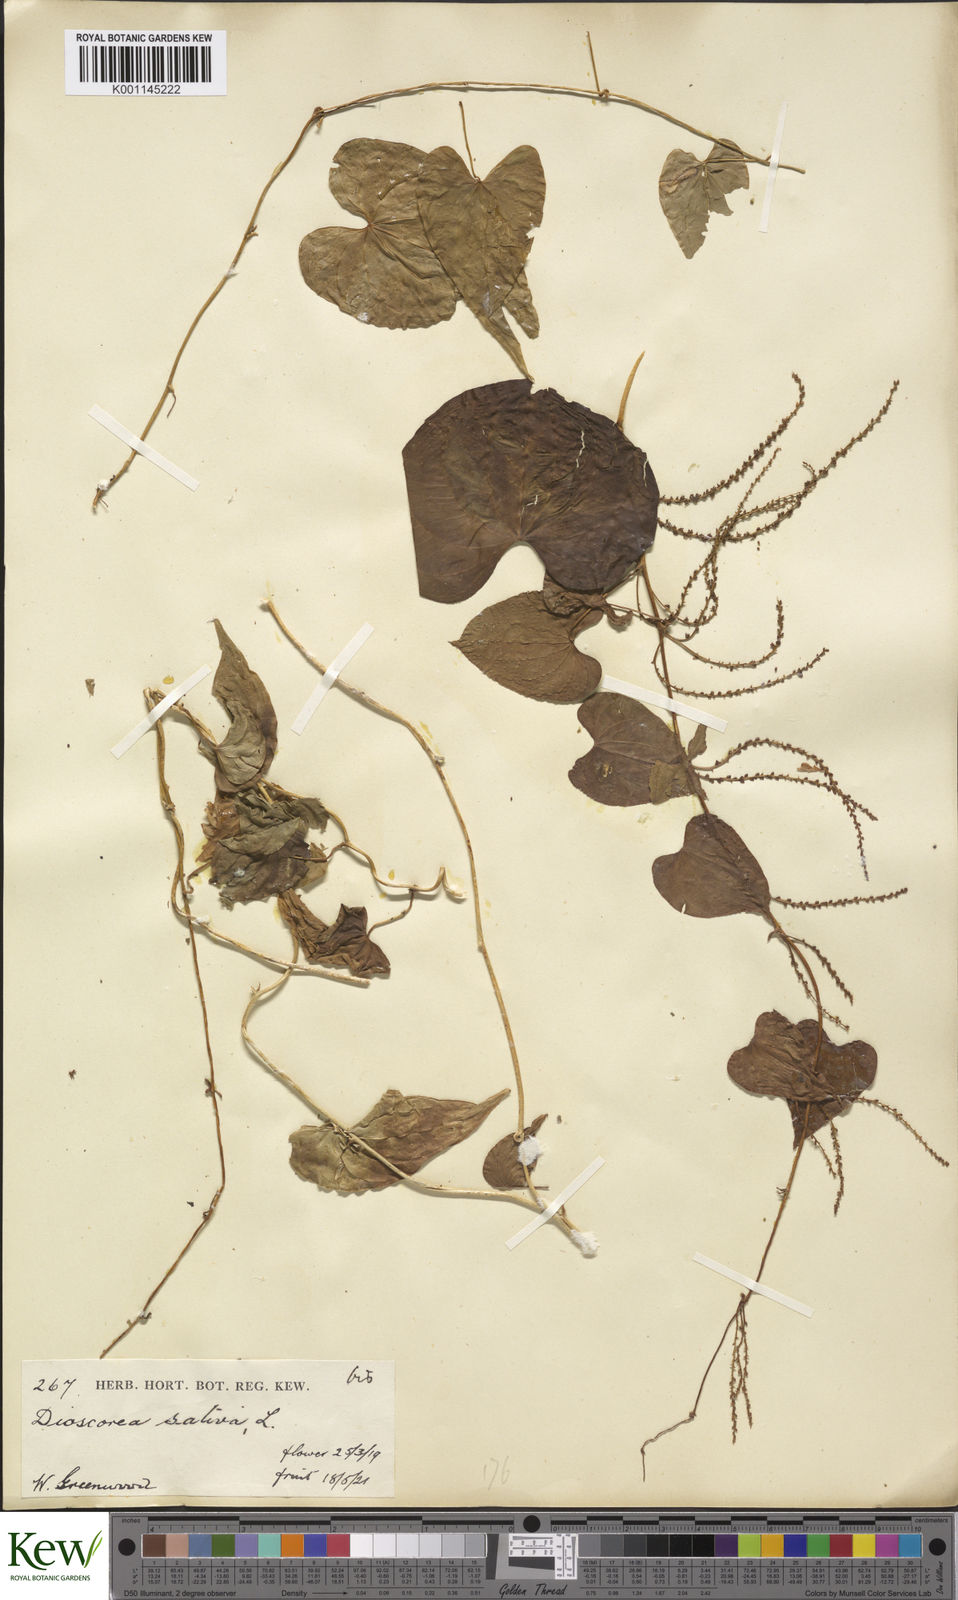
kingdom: Plantae
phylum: Tracheophyta
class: Liliopsida
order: Dioscoreales
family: Dioscoreaceae
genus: Dioscorea
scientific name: Dioscorea bulbifera
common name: Air yam
